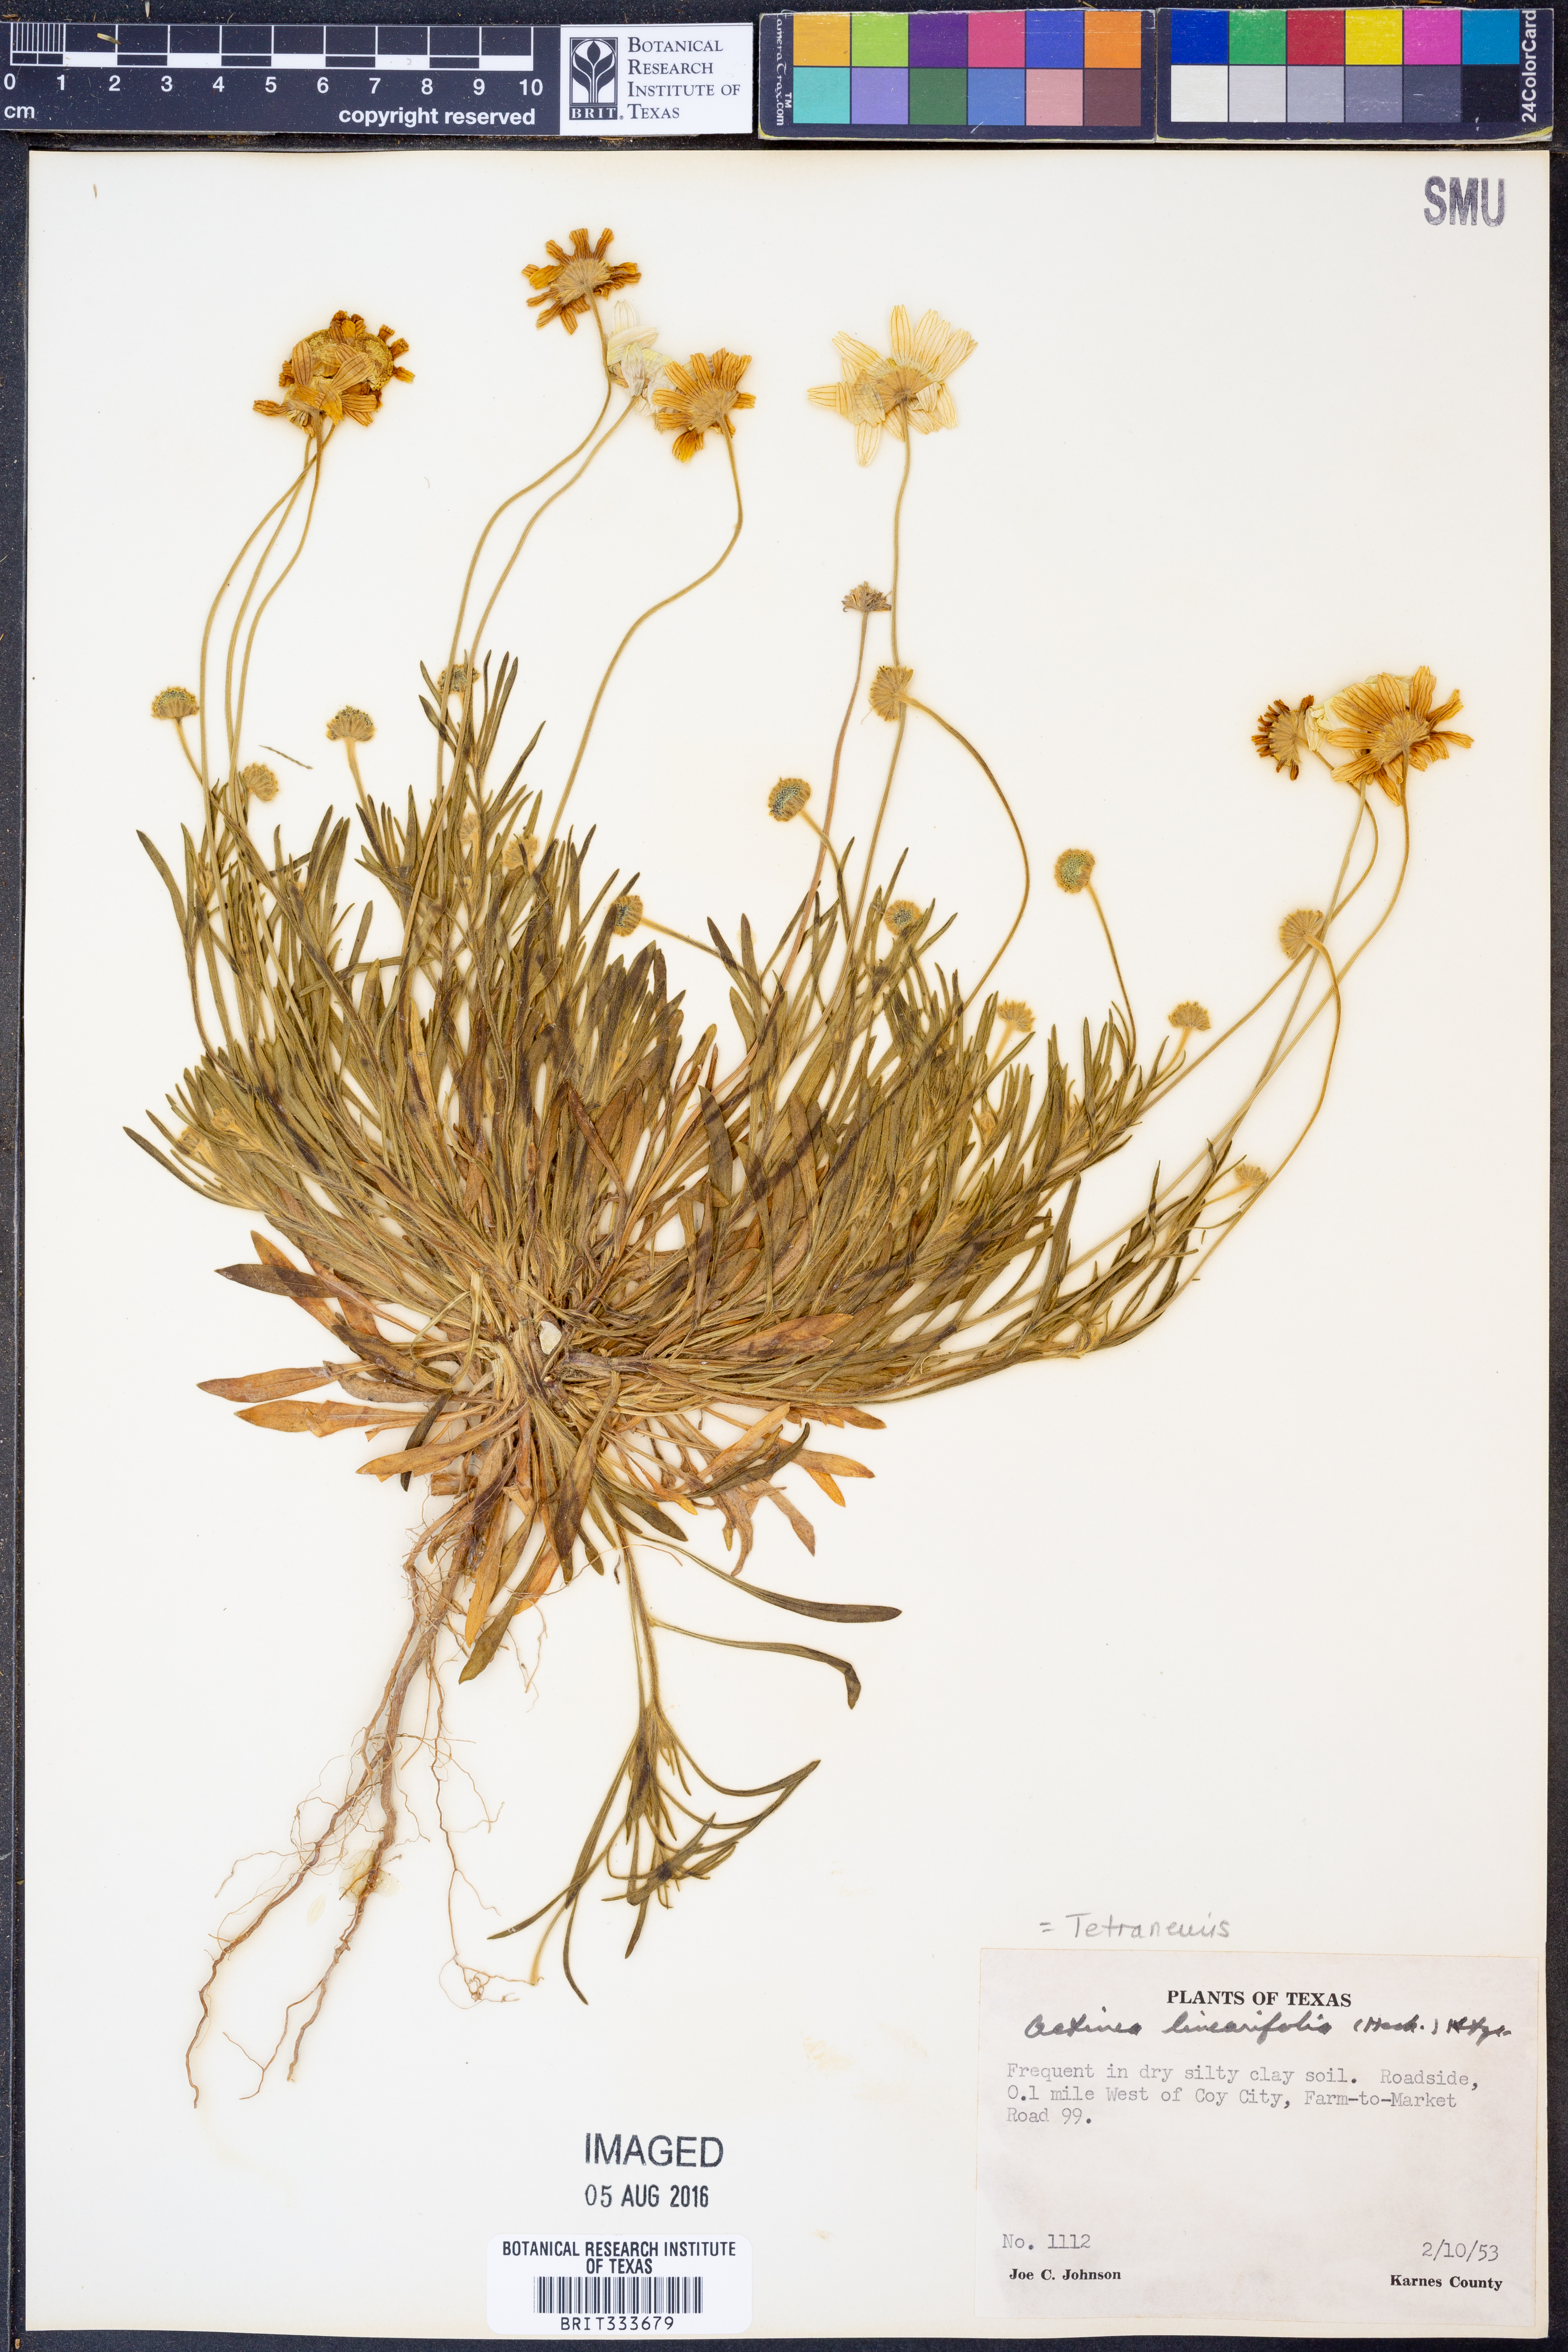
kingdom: Plantae
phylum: Tracheophyta
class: Magnoliopsida
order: Asterales
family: Asteraceae
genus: Tetraneuris
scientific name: Tetraneuris linearifolia
